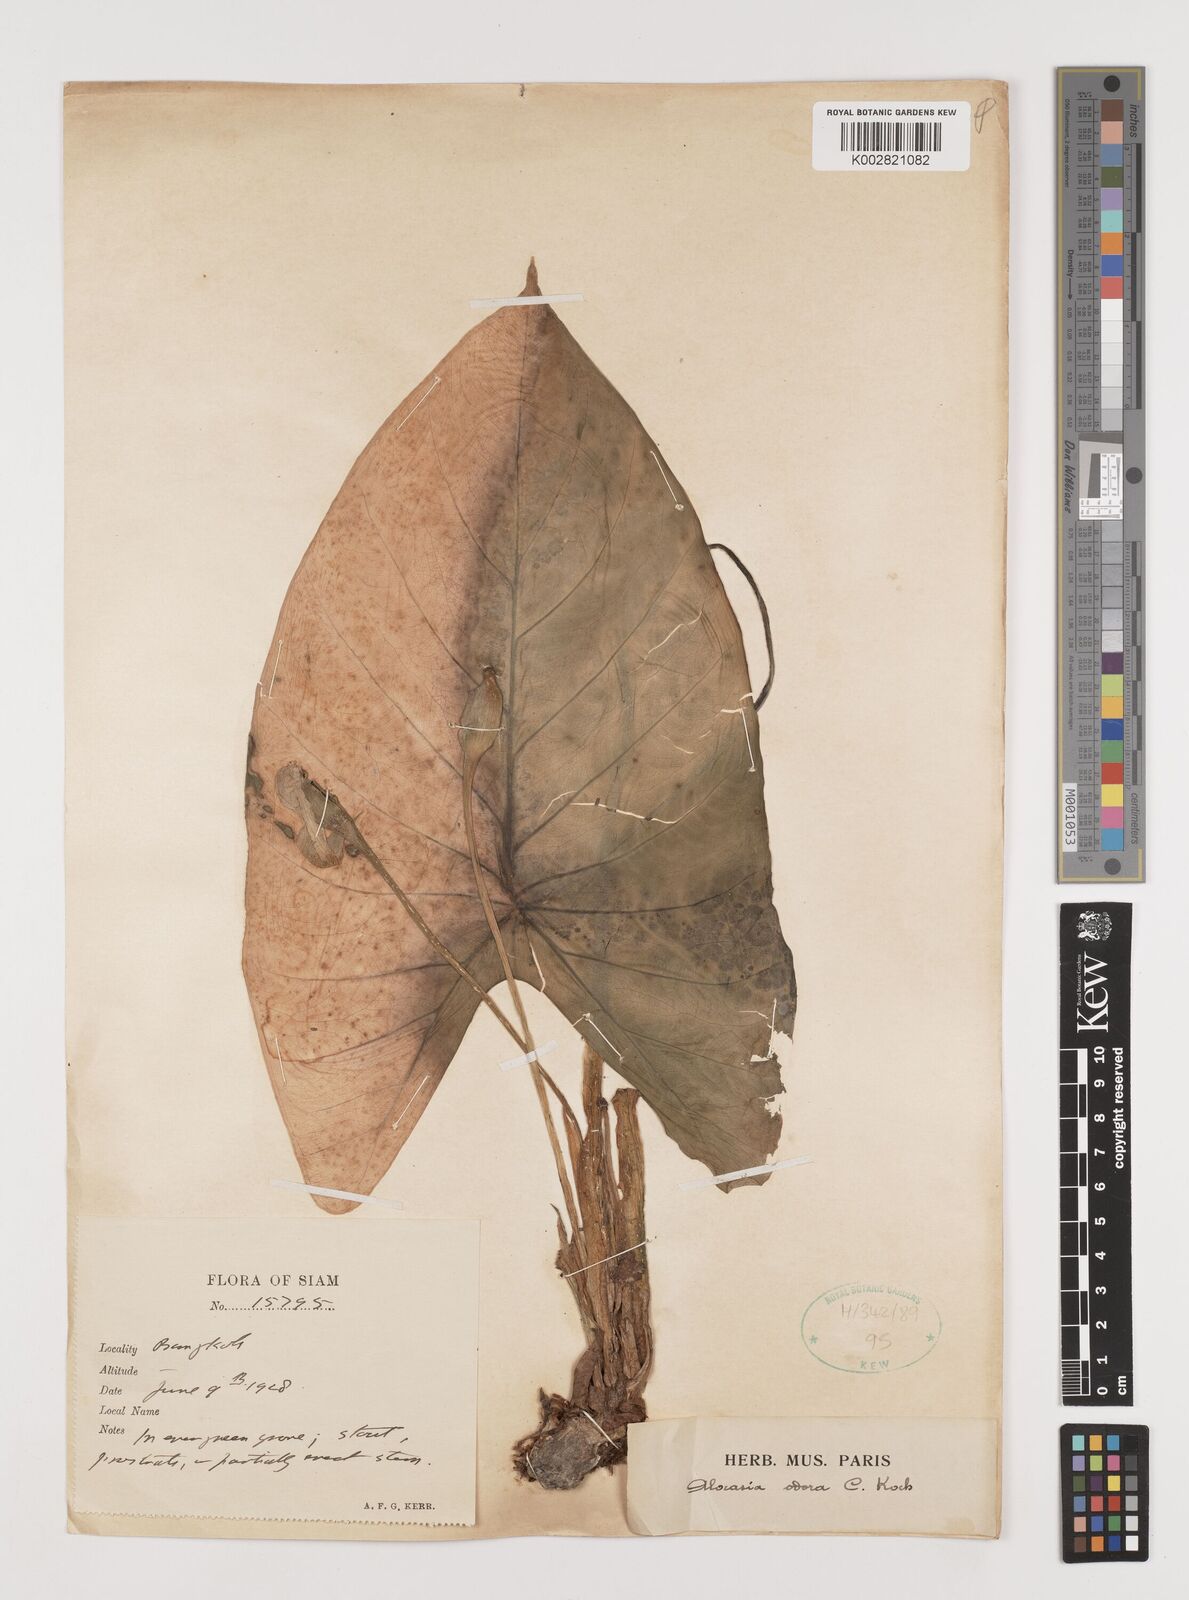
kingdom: Plantae
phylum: Tracheophyta
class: Liliopsida
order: Alismatales
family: Araceae
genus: Alocasia
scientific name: Alocasia
